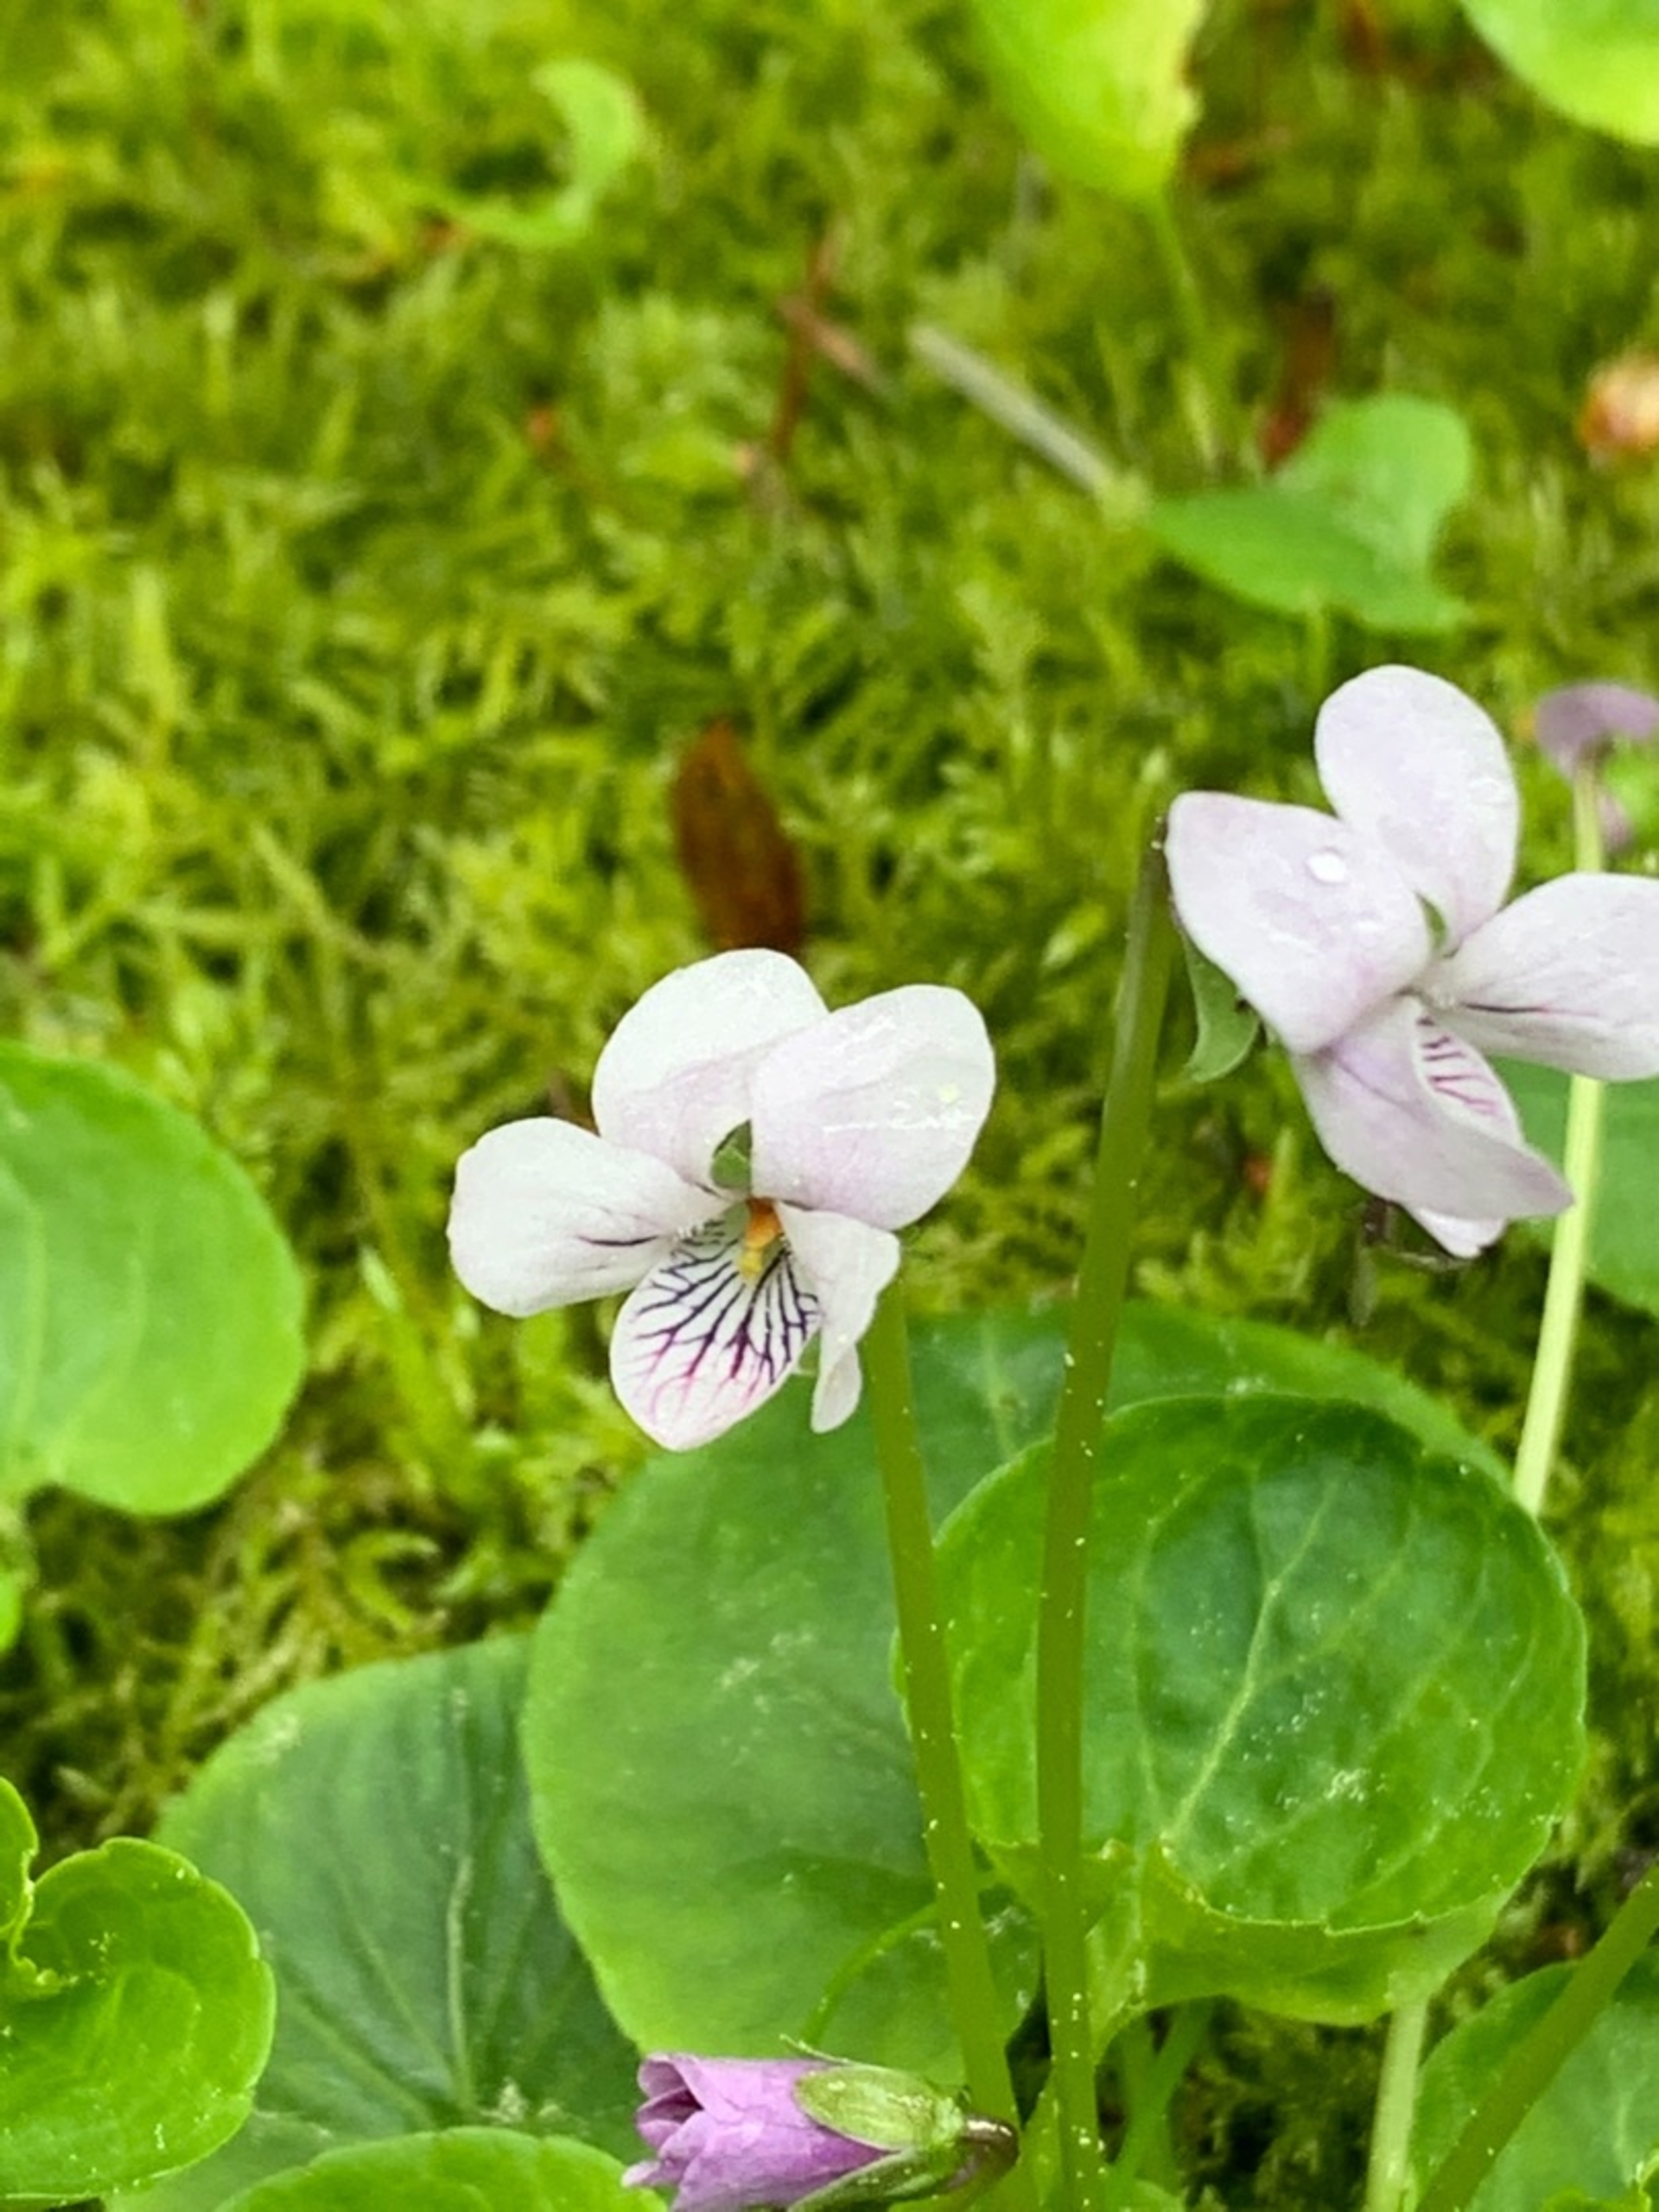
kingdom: Plantae
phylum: Tracheophyta
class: Magnoliopsida
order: Malpighiales
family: Violaceae
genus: Viola
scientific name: Viola palustris
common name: Eng-viol
